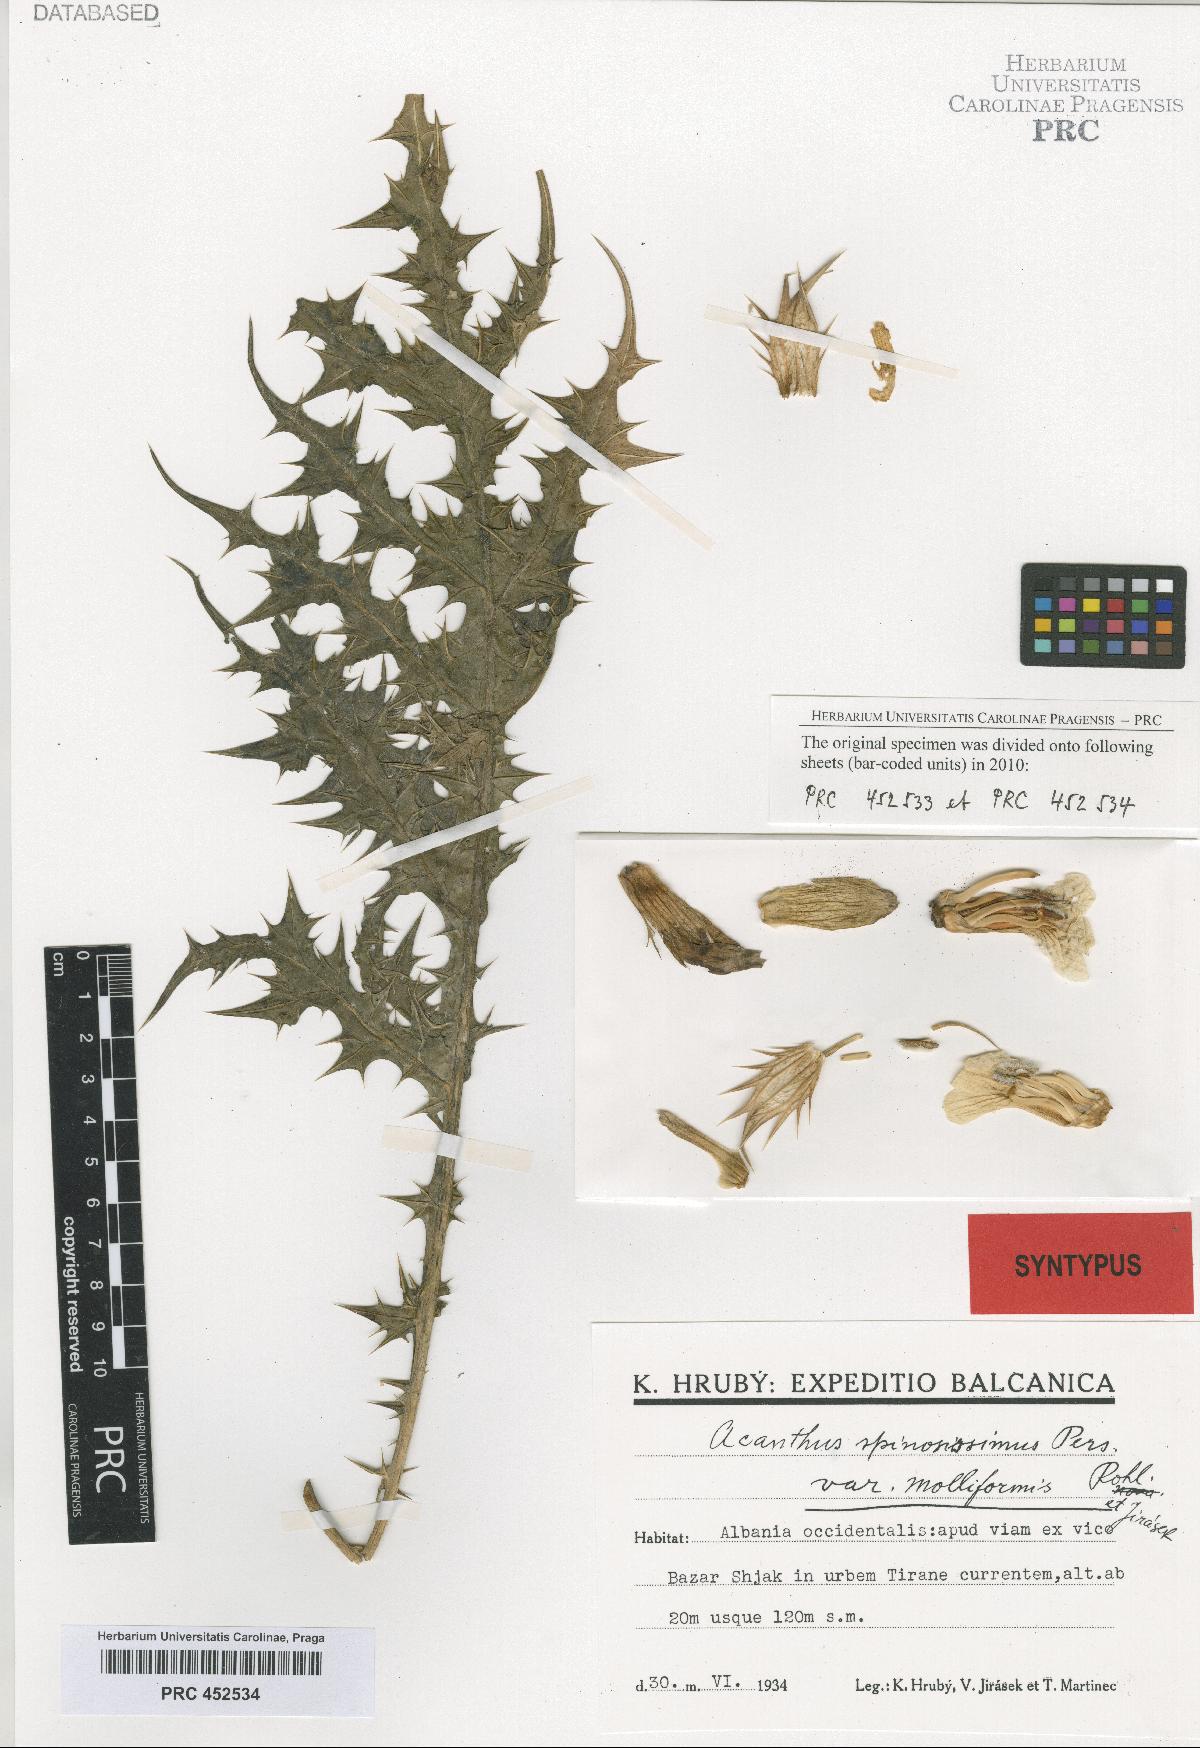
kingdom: Plantae
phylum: Tracheophyta
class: Magnoliopsida
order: Lamiales
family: Acanthaceae
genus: Acanthus
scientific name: Acanthus spinosus
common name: Spiny bear's-breech
